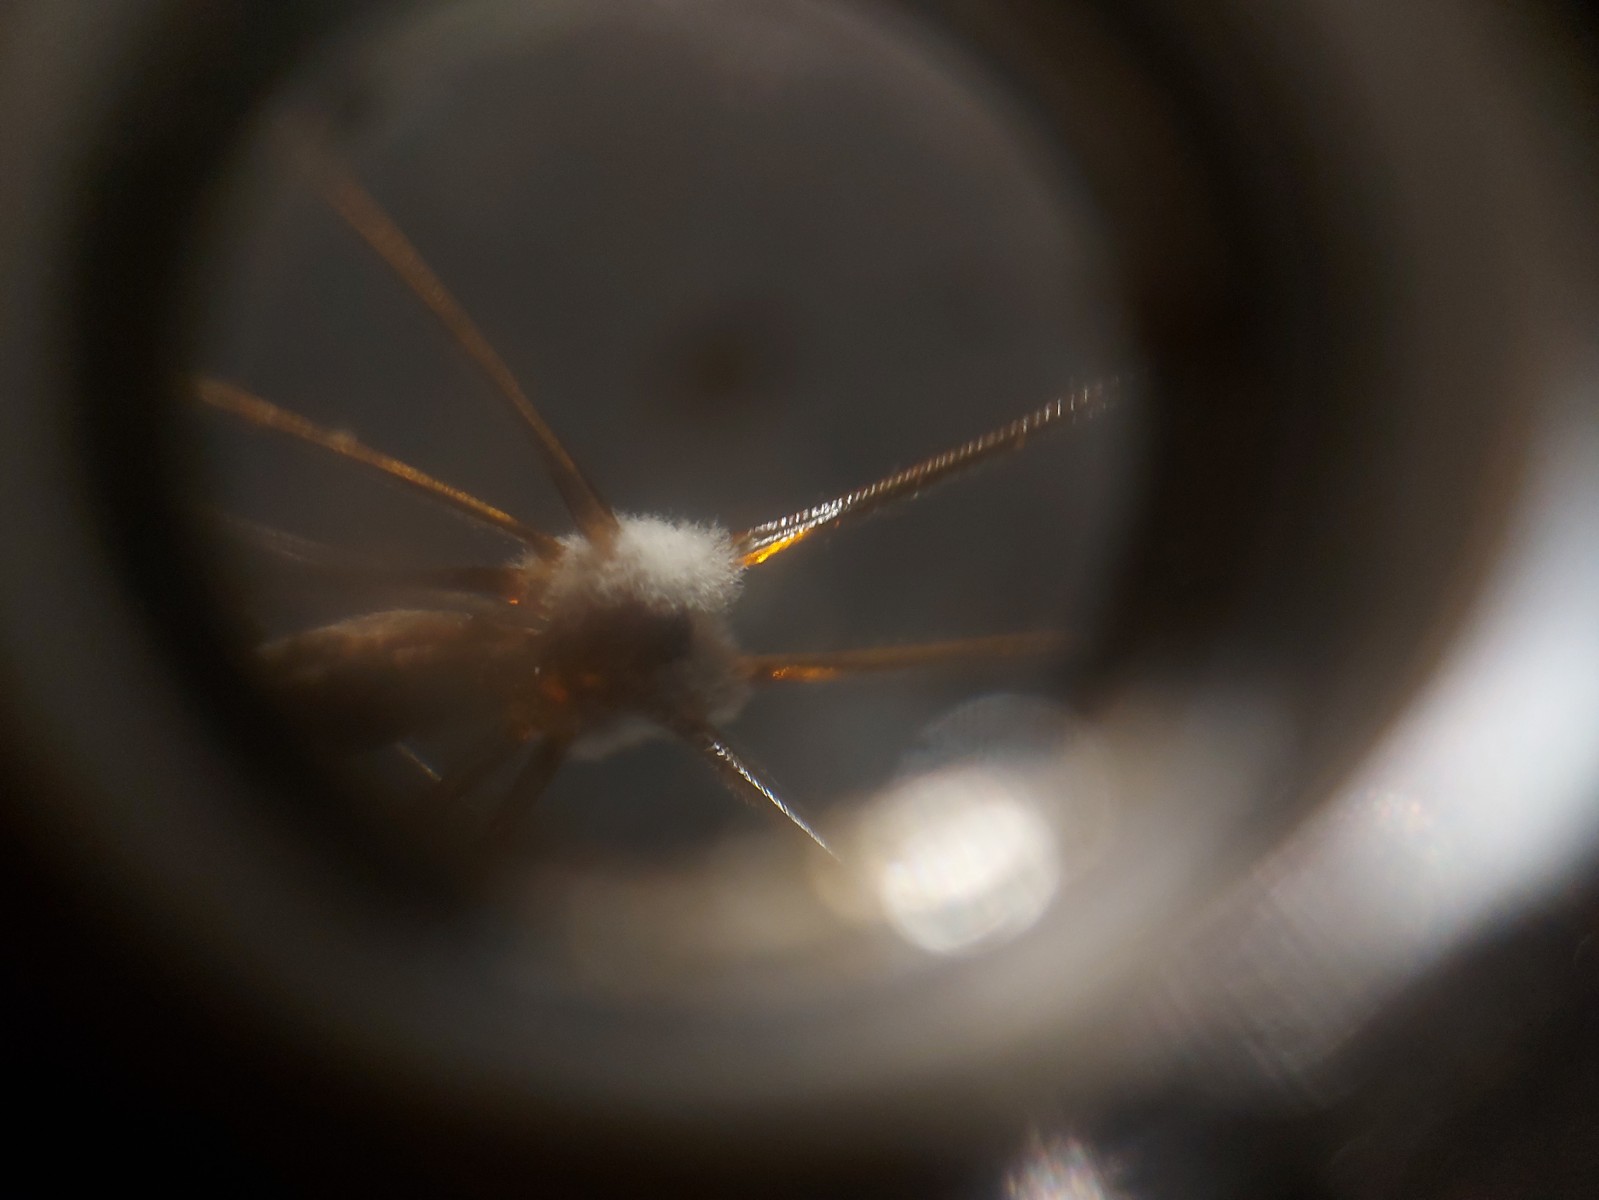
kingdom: Fungi
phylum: Ascomycota
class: Sordariomycetes
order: Hypocreales
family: Cordycipitaceae
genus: Lecanicillium
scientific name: Lecanicillium tenuipes
